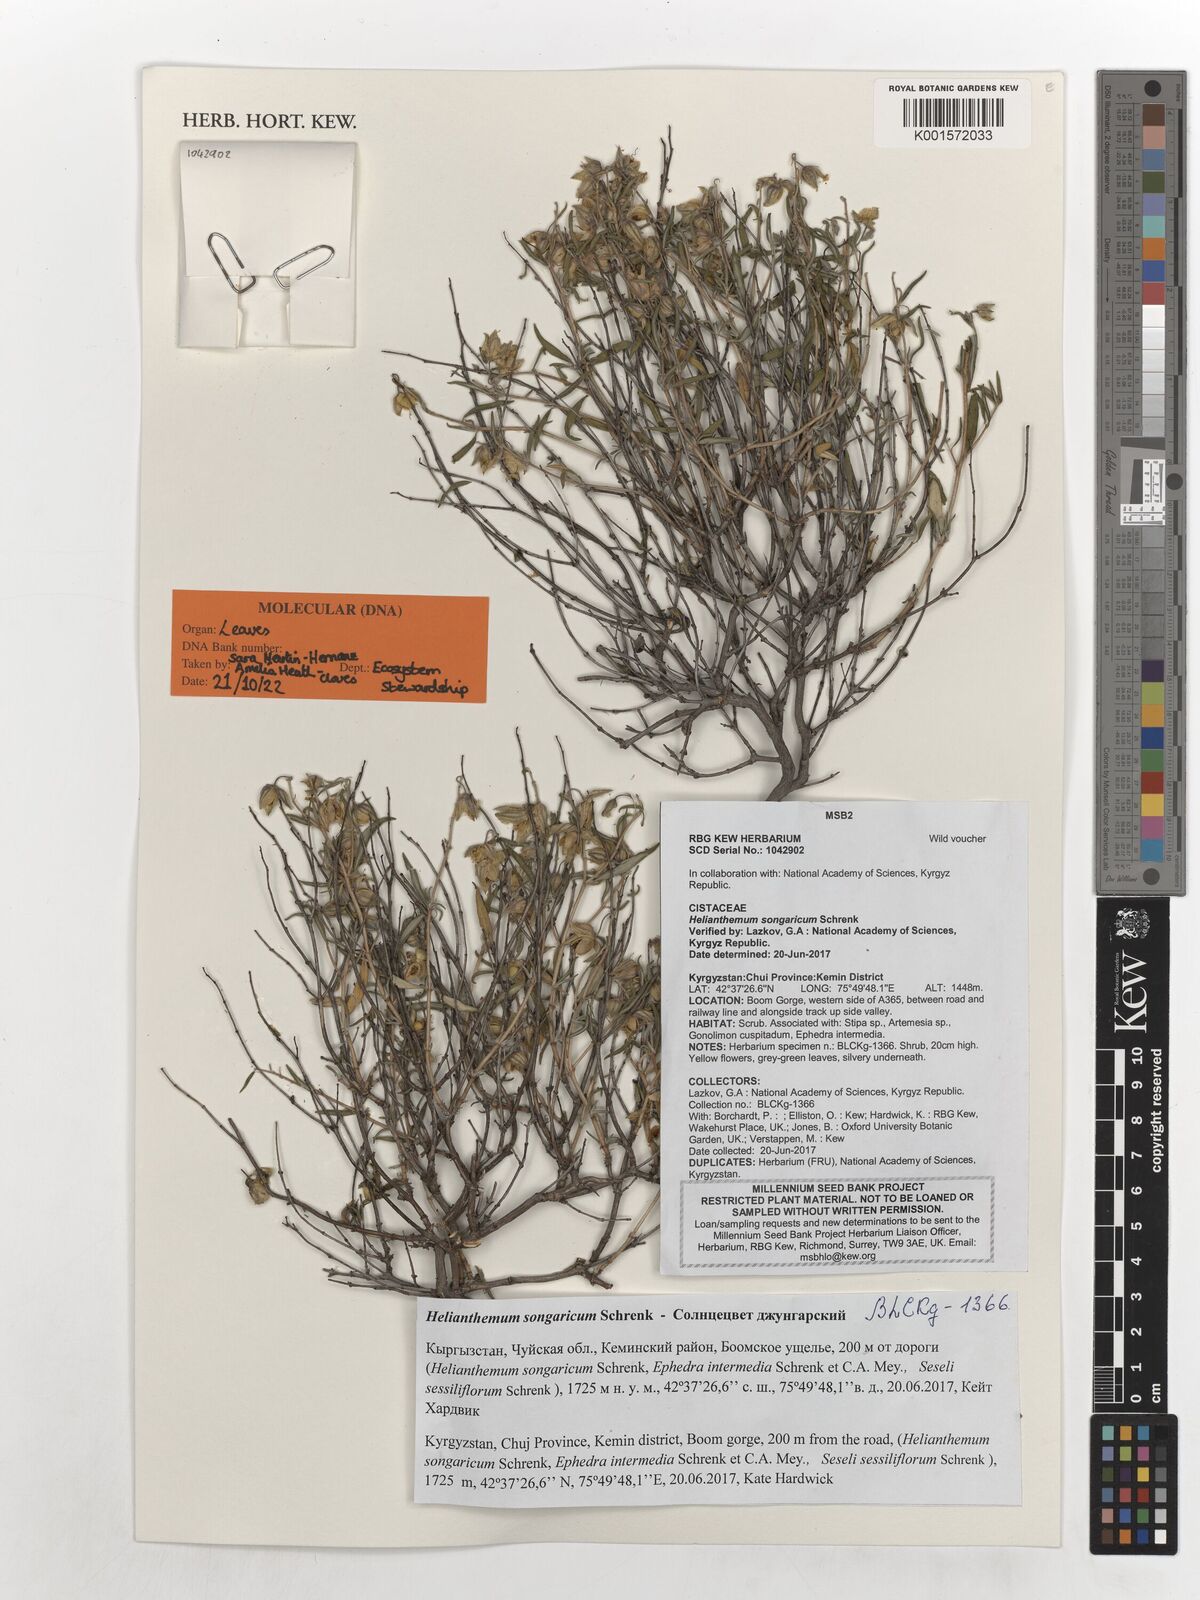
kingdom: Plantae
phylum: Tracheophyta
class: Magnoliopsida
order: Malvales
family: Cistaceae
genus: Helianthemum
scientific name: Helianthemum songaricum
